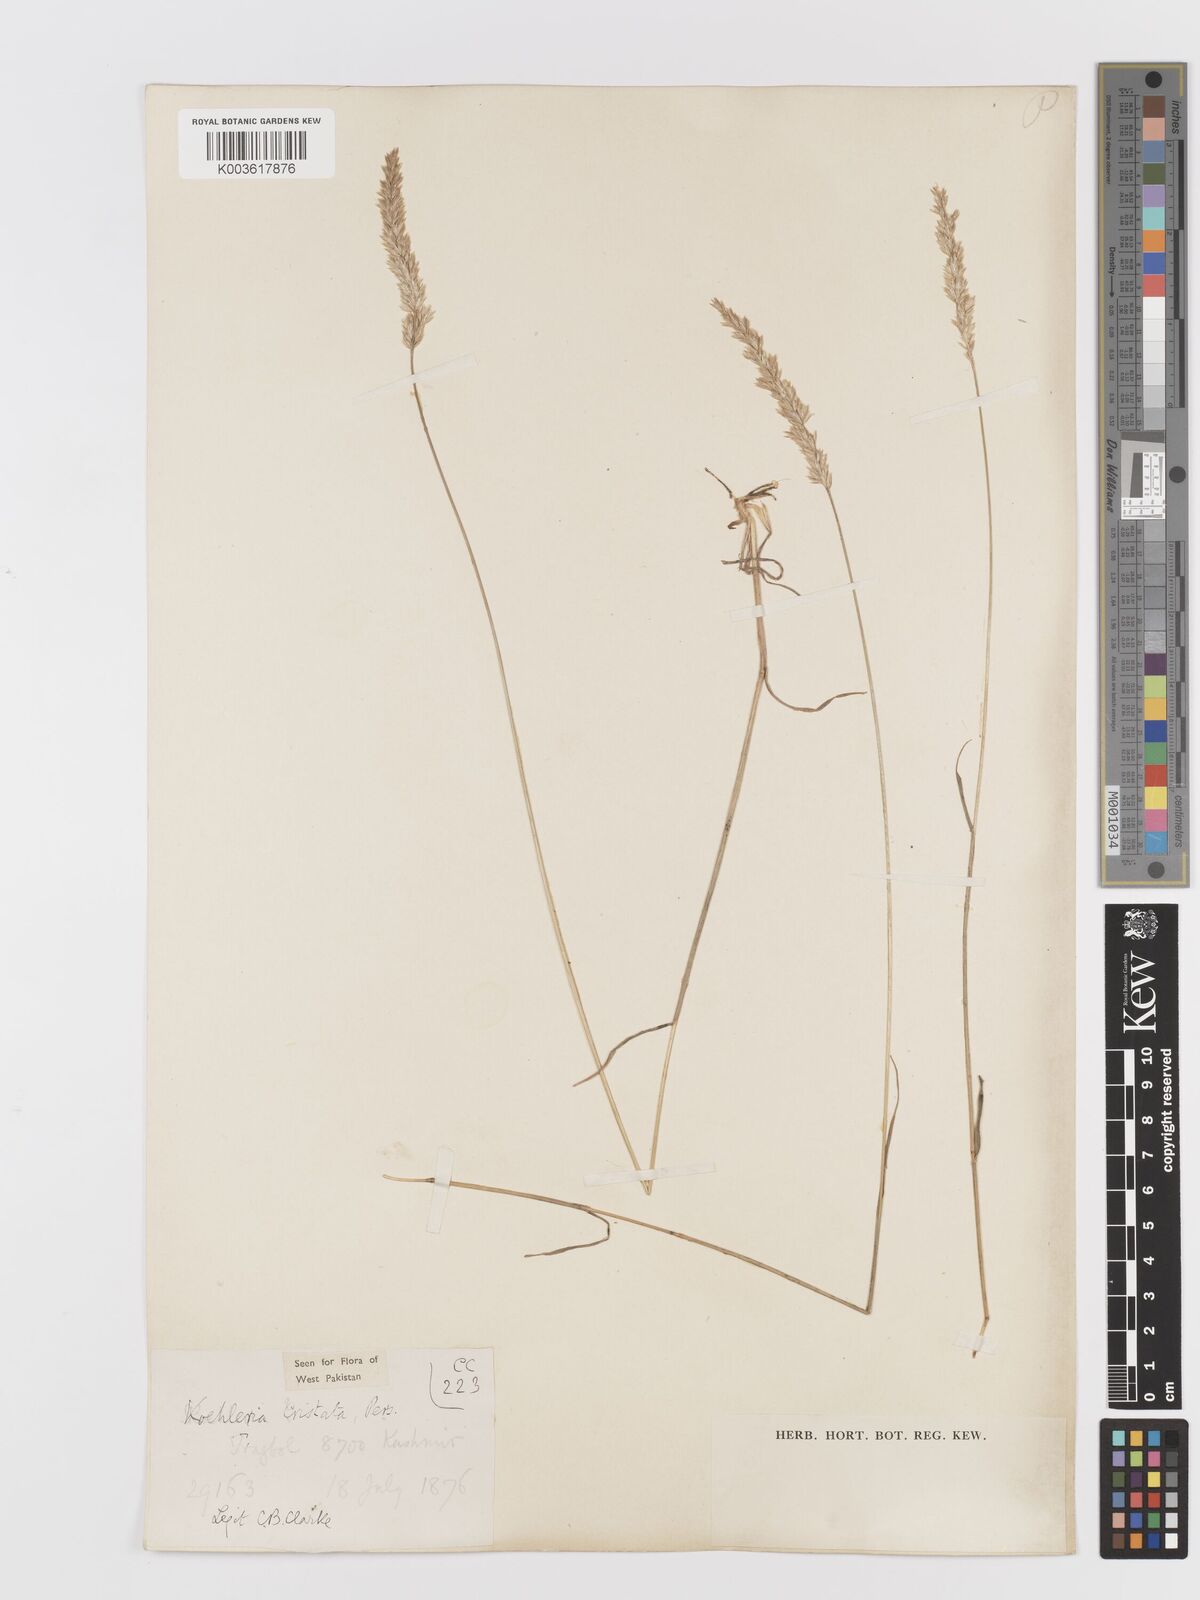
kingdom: Plantae
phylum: Tracheophyta
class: Liliopsida
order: Poales
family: Poaceae
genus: Koeleria
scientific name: Koeleria
